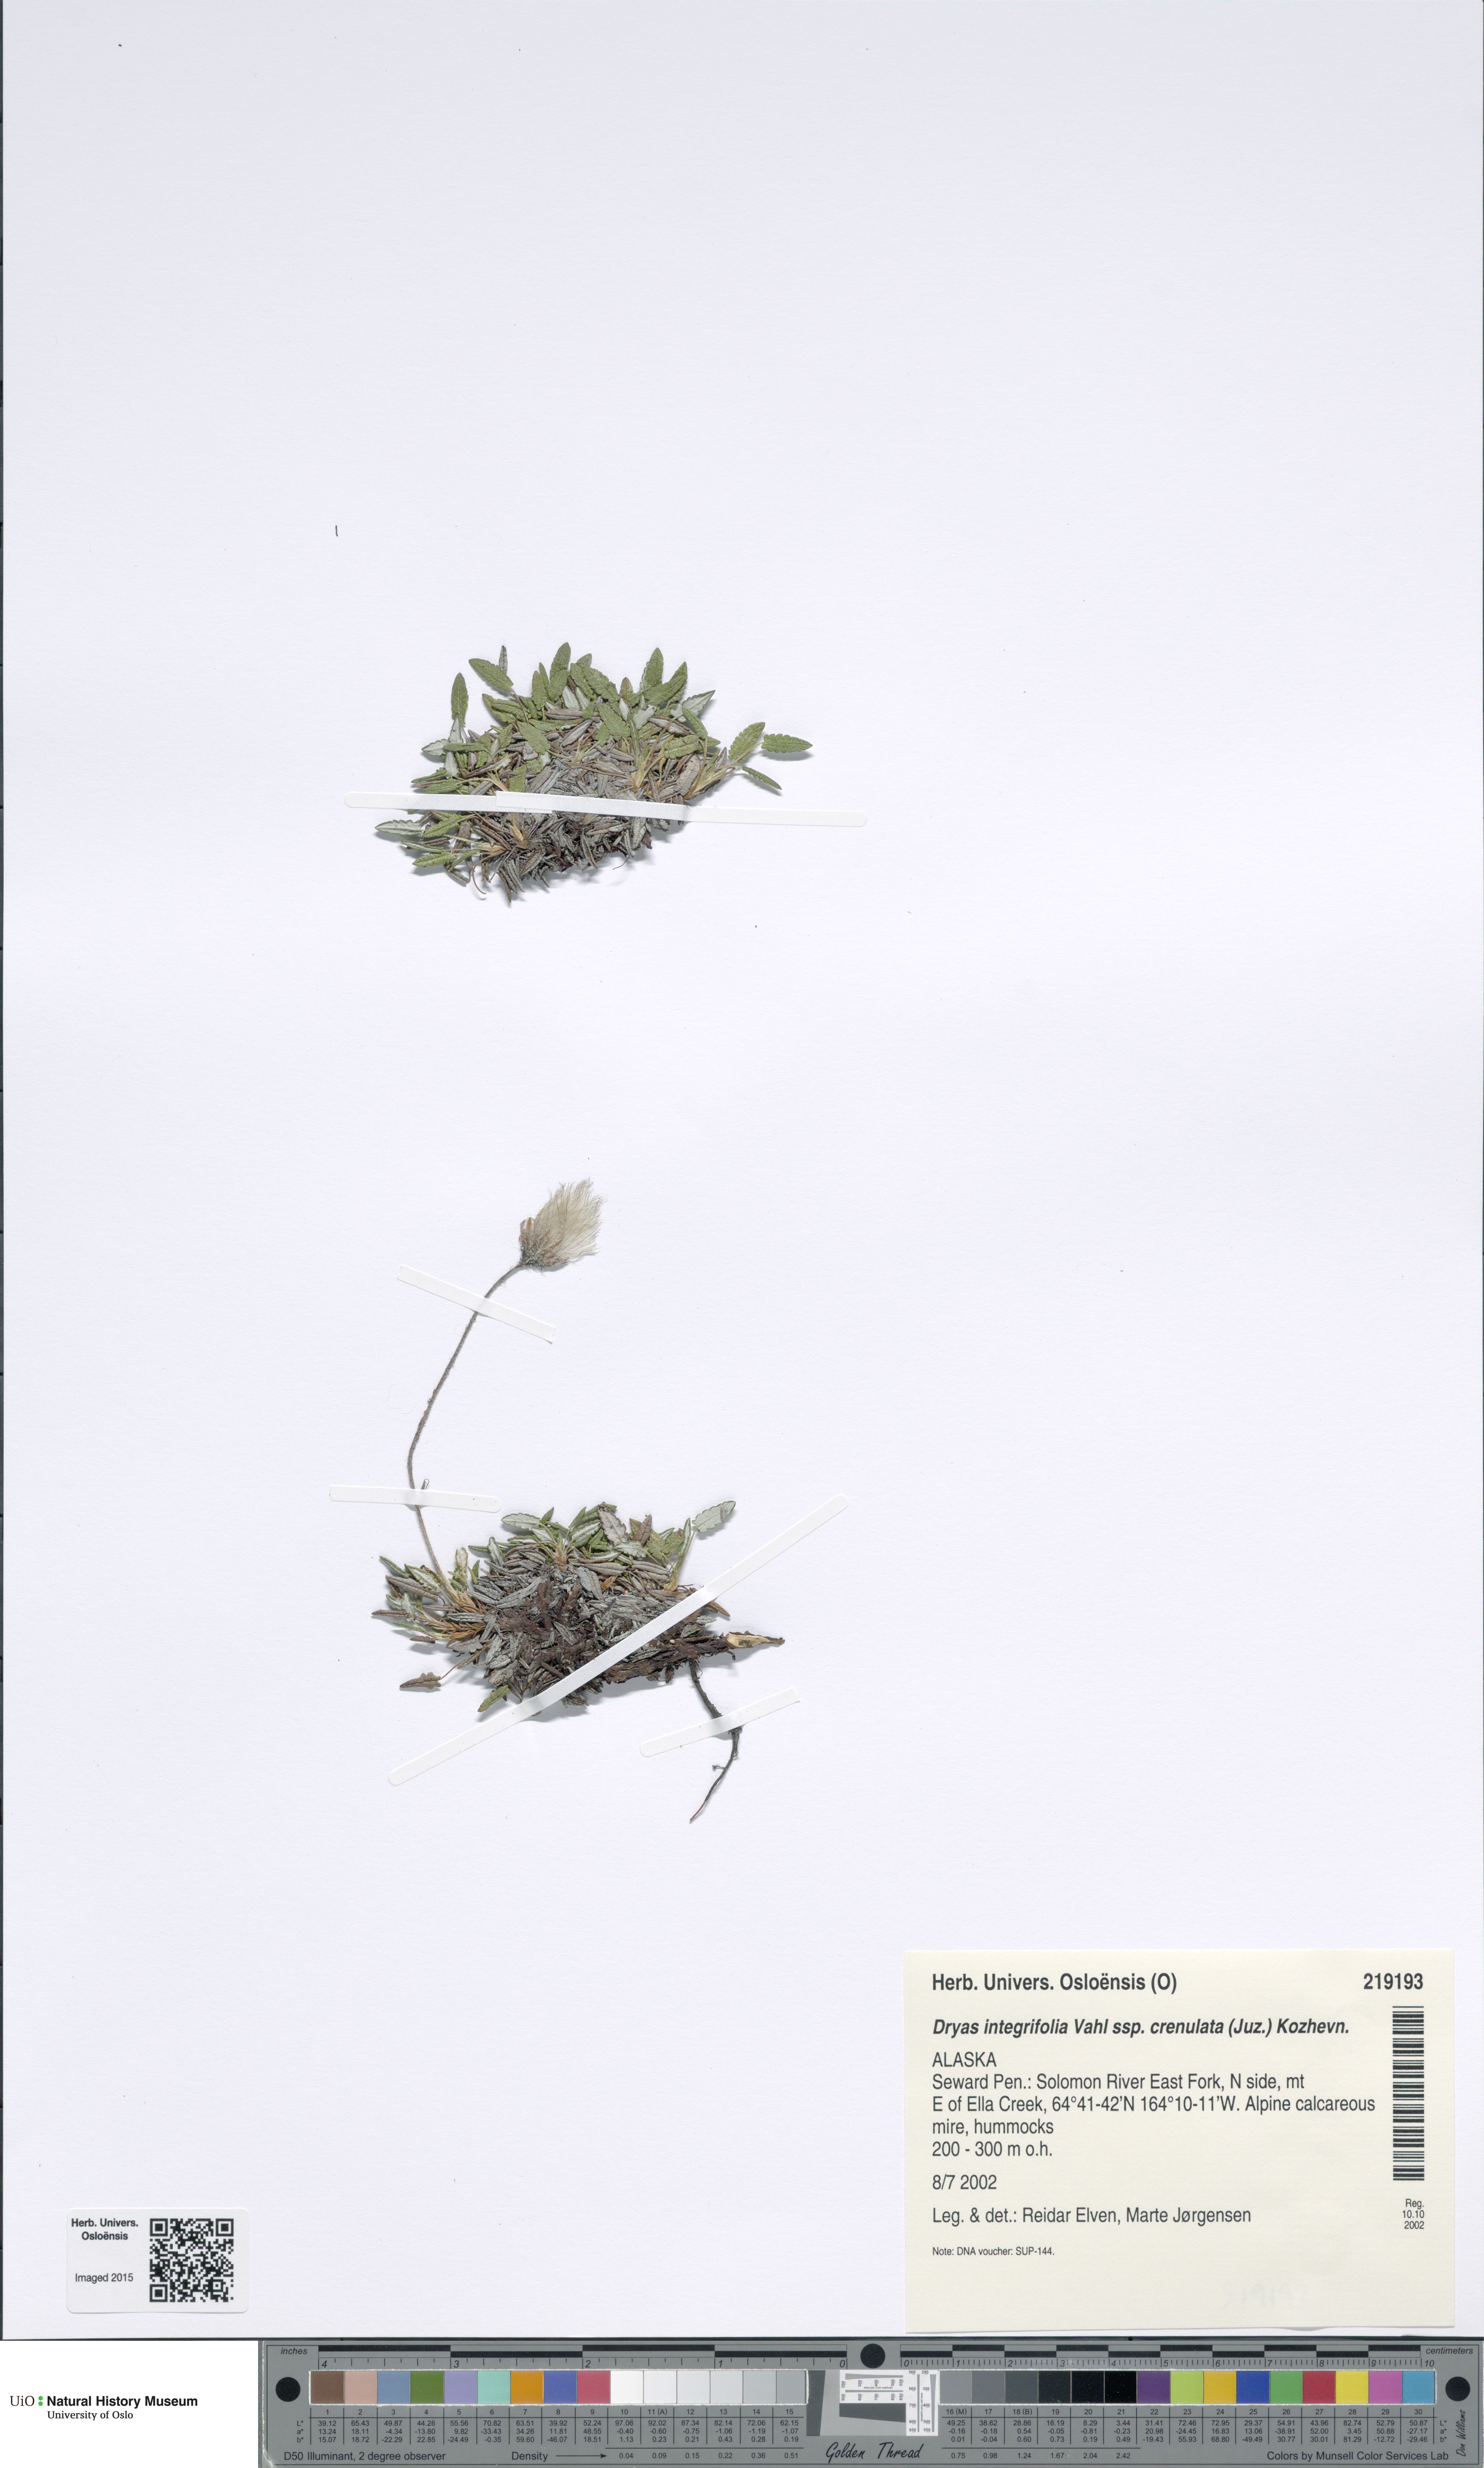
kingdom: Plantae
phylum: Tracheophyta
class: Magnoliopsida
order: Rosales
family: Rosaceae
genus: Dryas
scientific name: Dryas integrifolia
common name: Entire-leaved mountain avens
